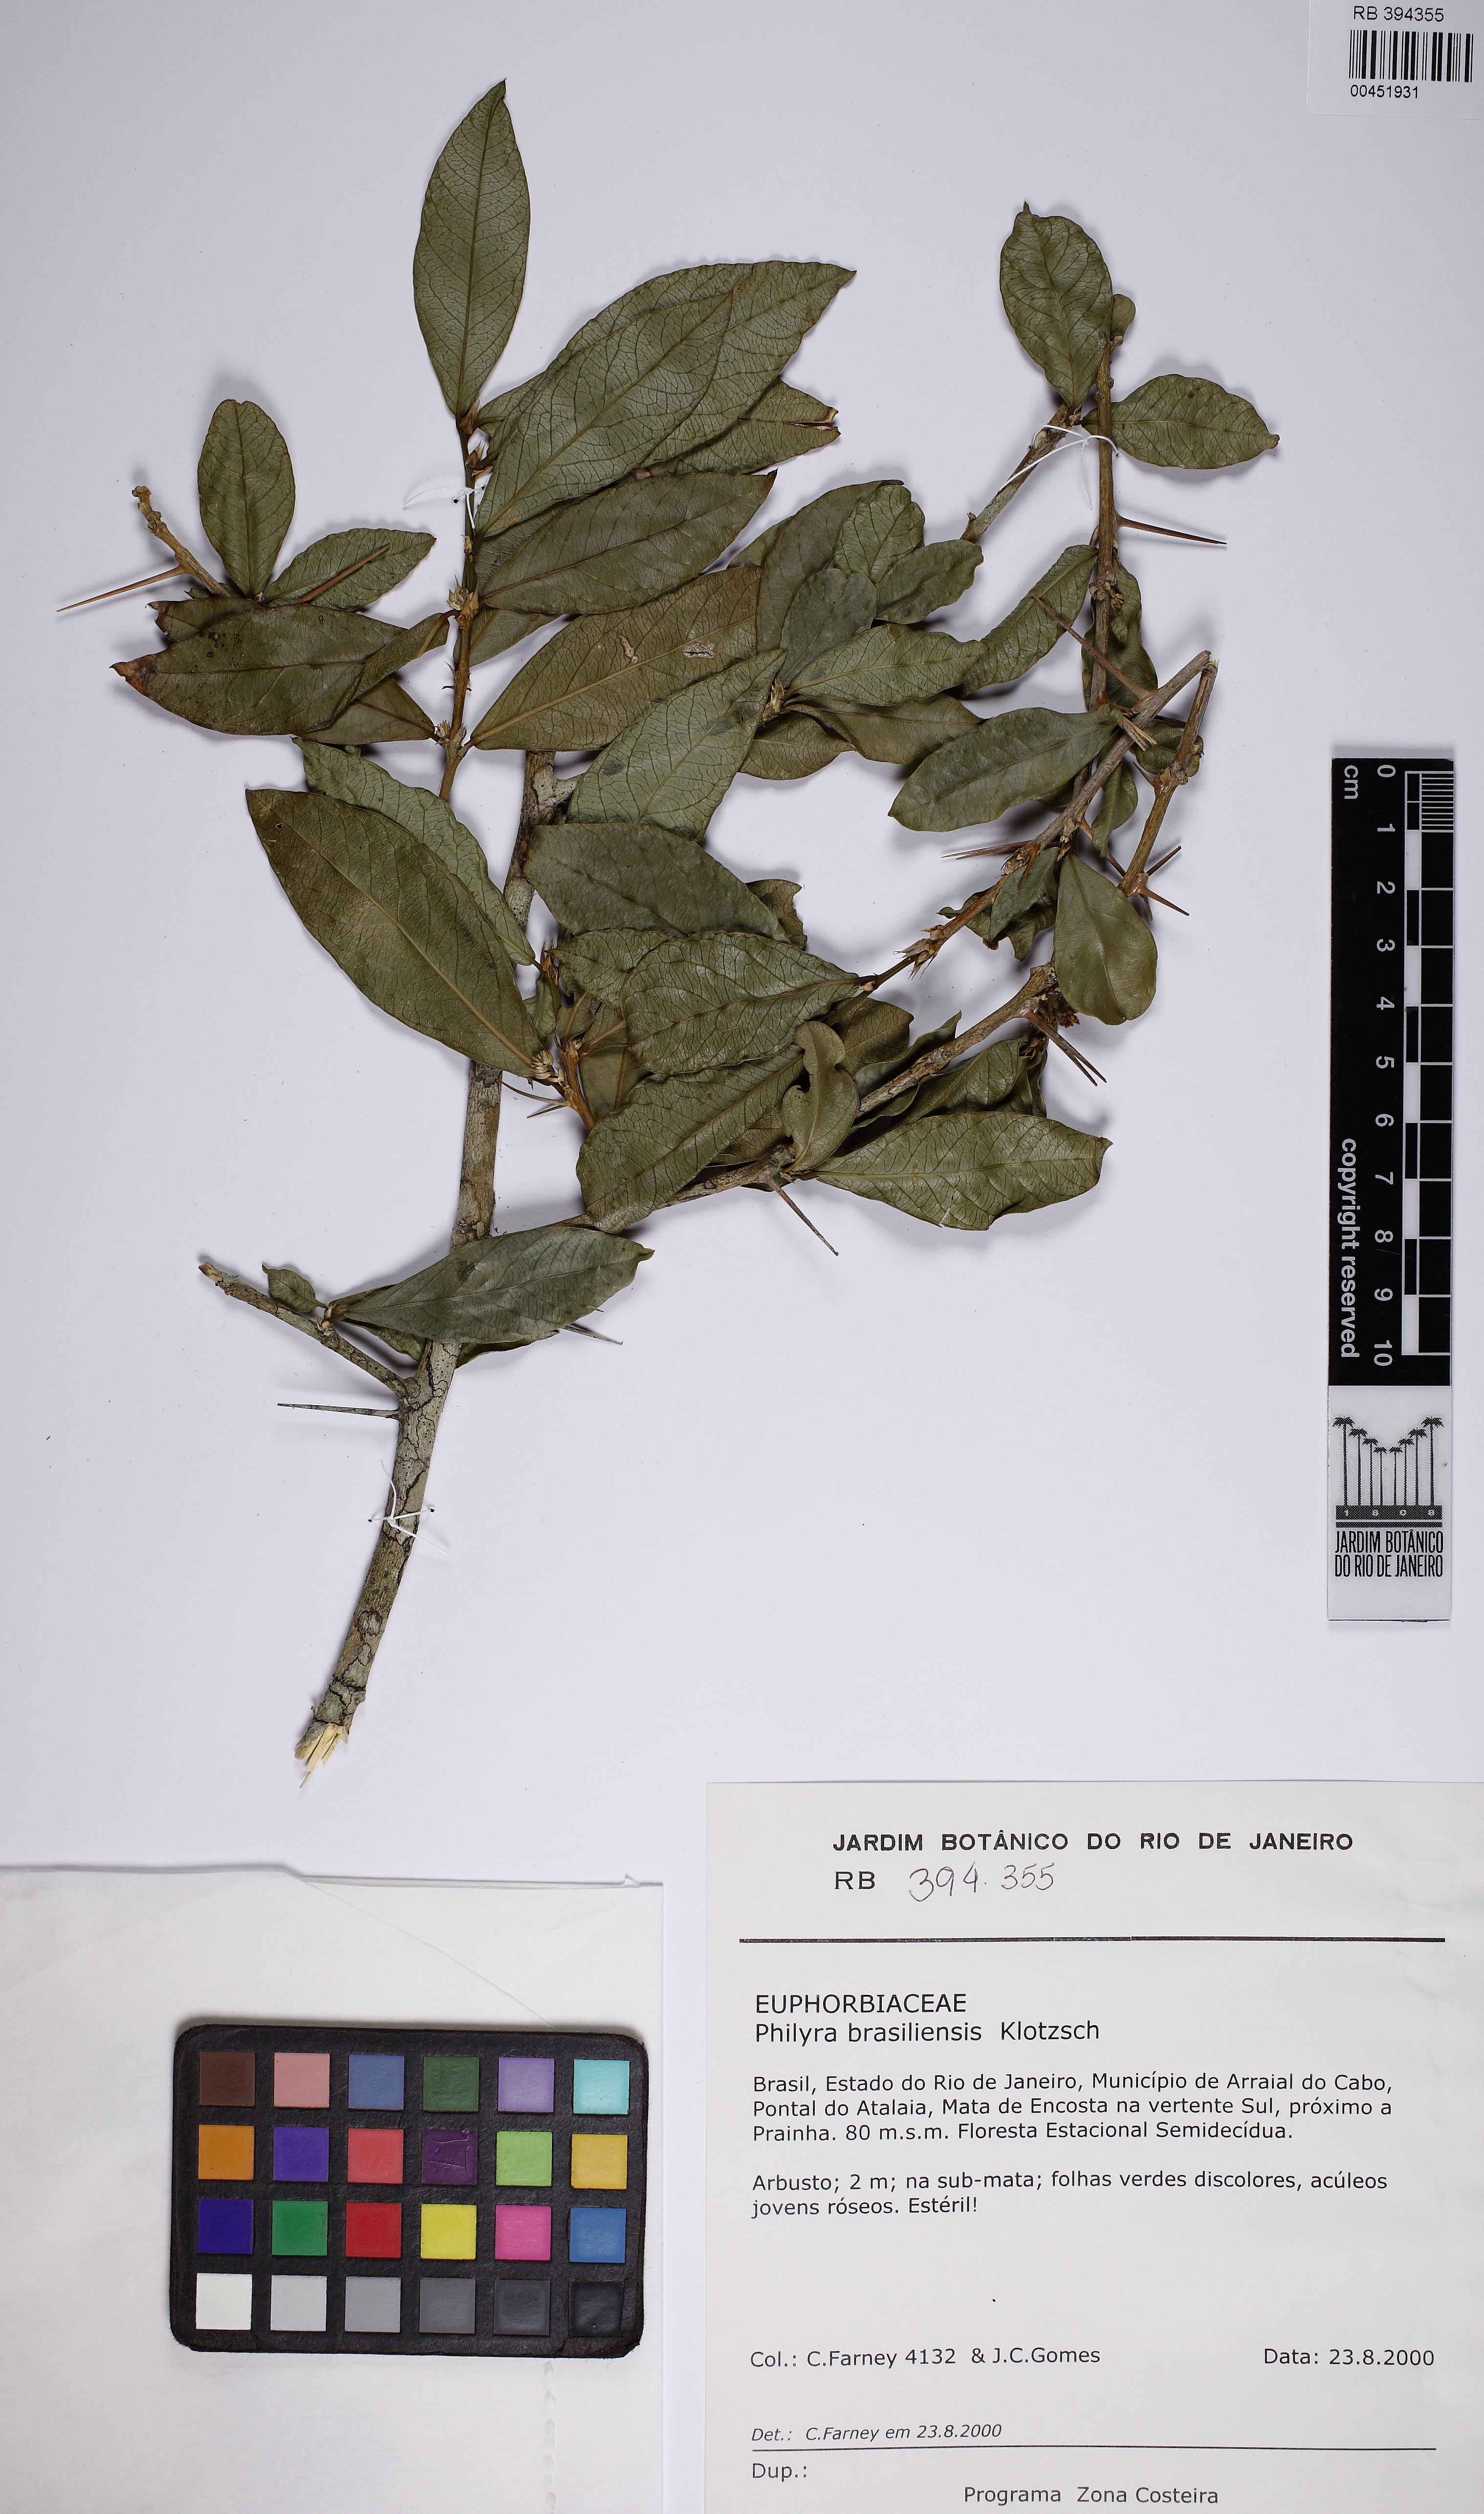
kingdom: Plantae
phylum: Tracheophyta
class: Magnoliopsida
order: Malpighiales
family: Euphorbiaceae
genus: Philyra
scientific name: Philyra brasiliensis
